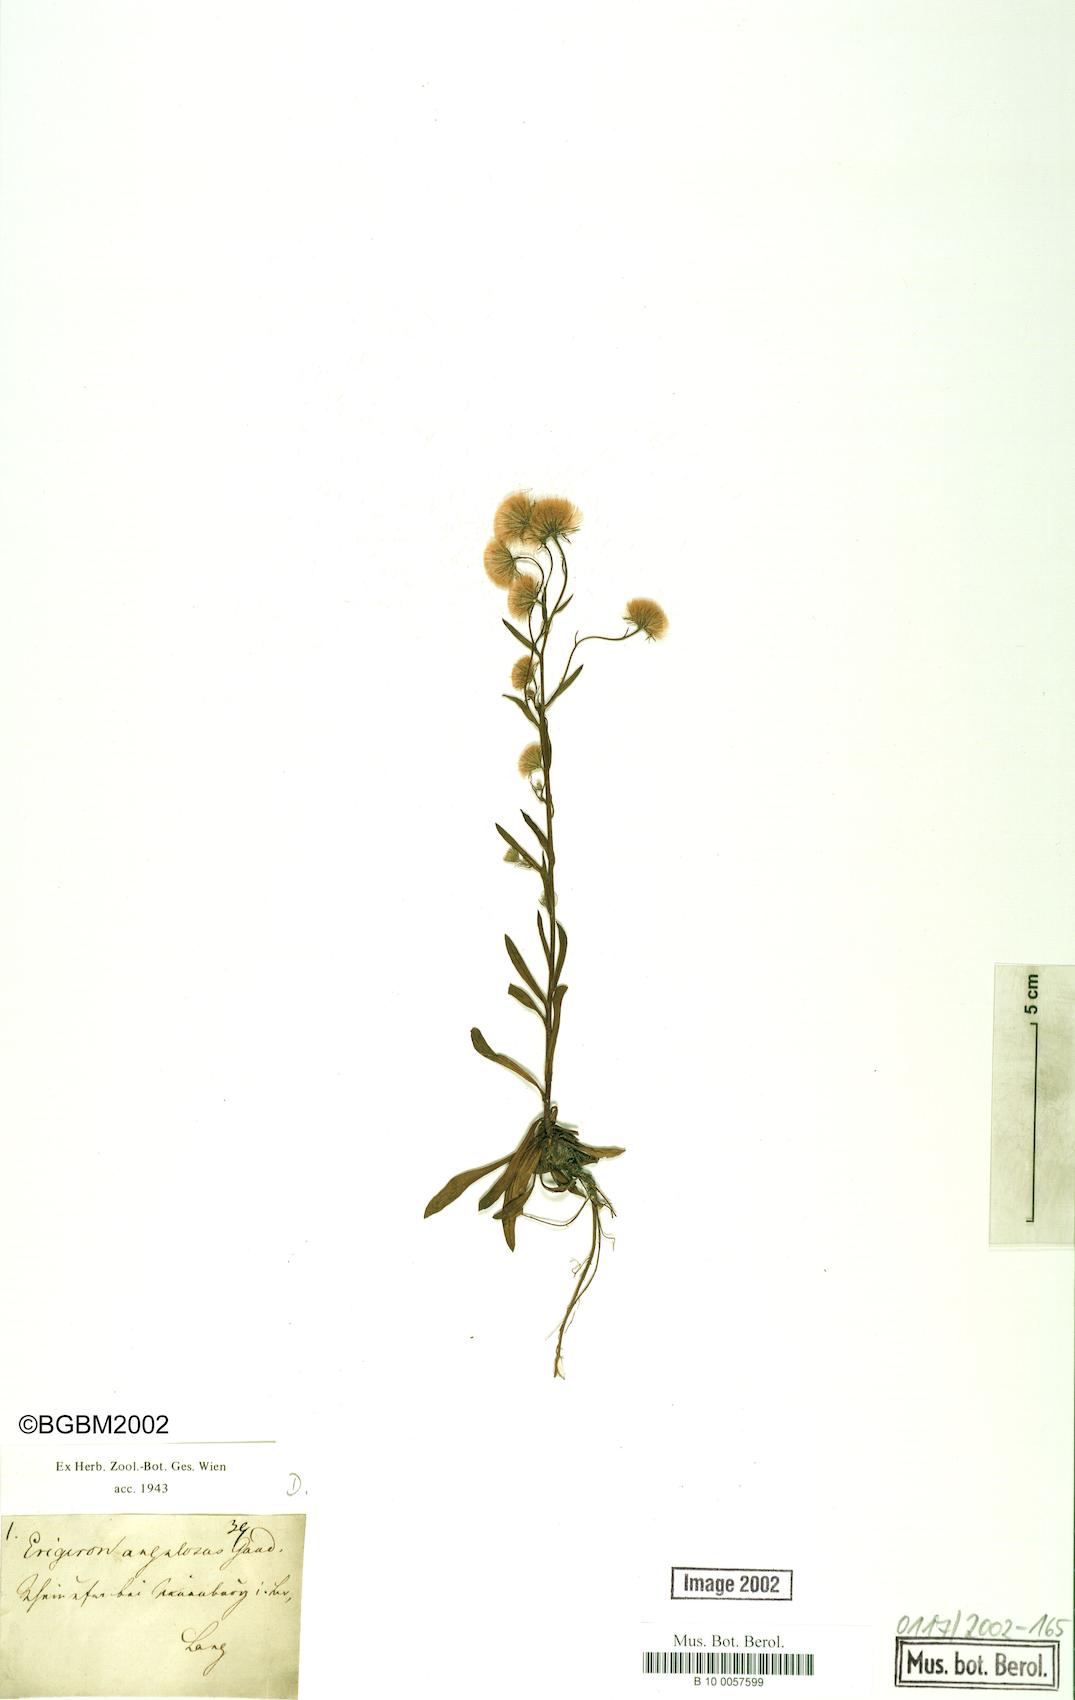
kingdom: Plantae
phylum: Tracheophyta
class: Magnoliopsida
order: Asterales
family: Asteraceae
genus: Erigeron
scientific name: Erigeron angulosus
